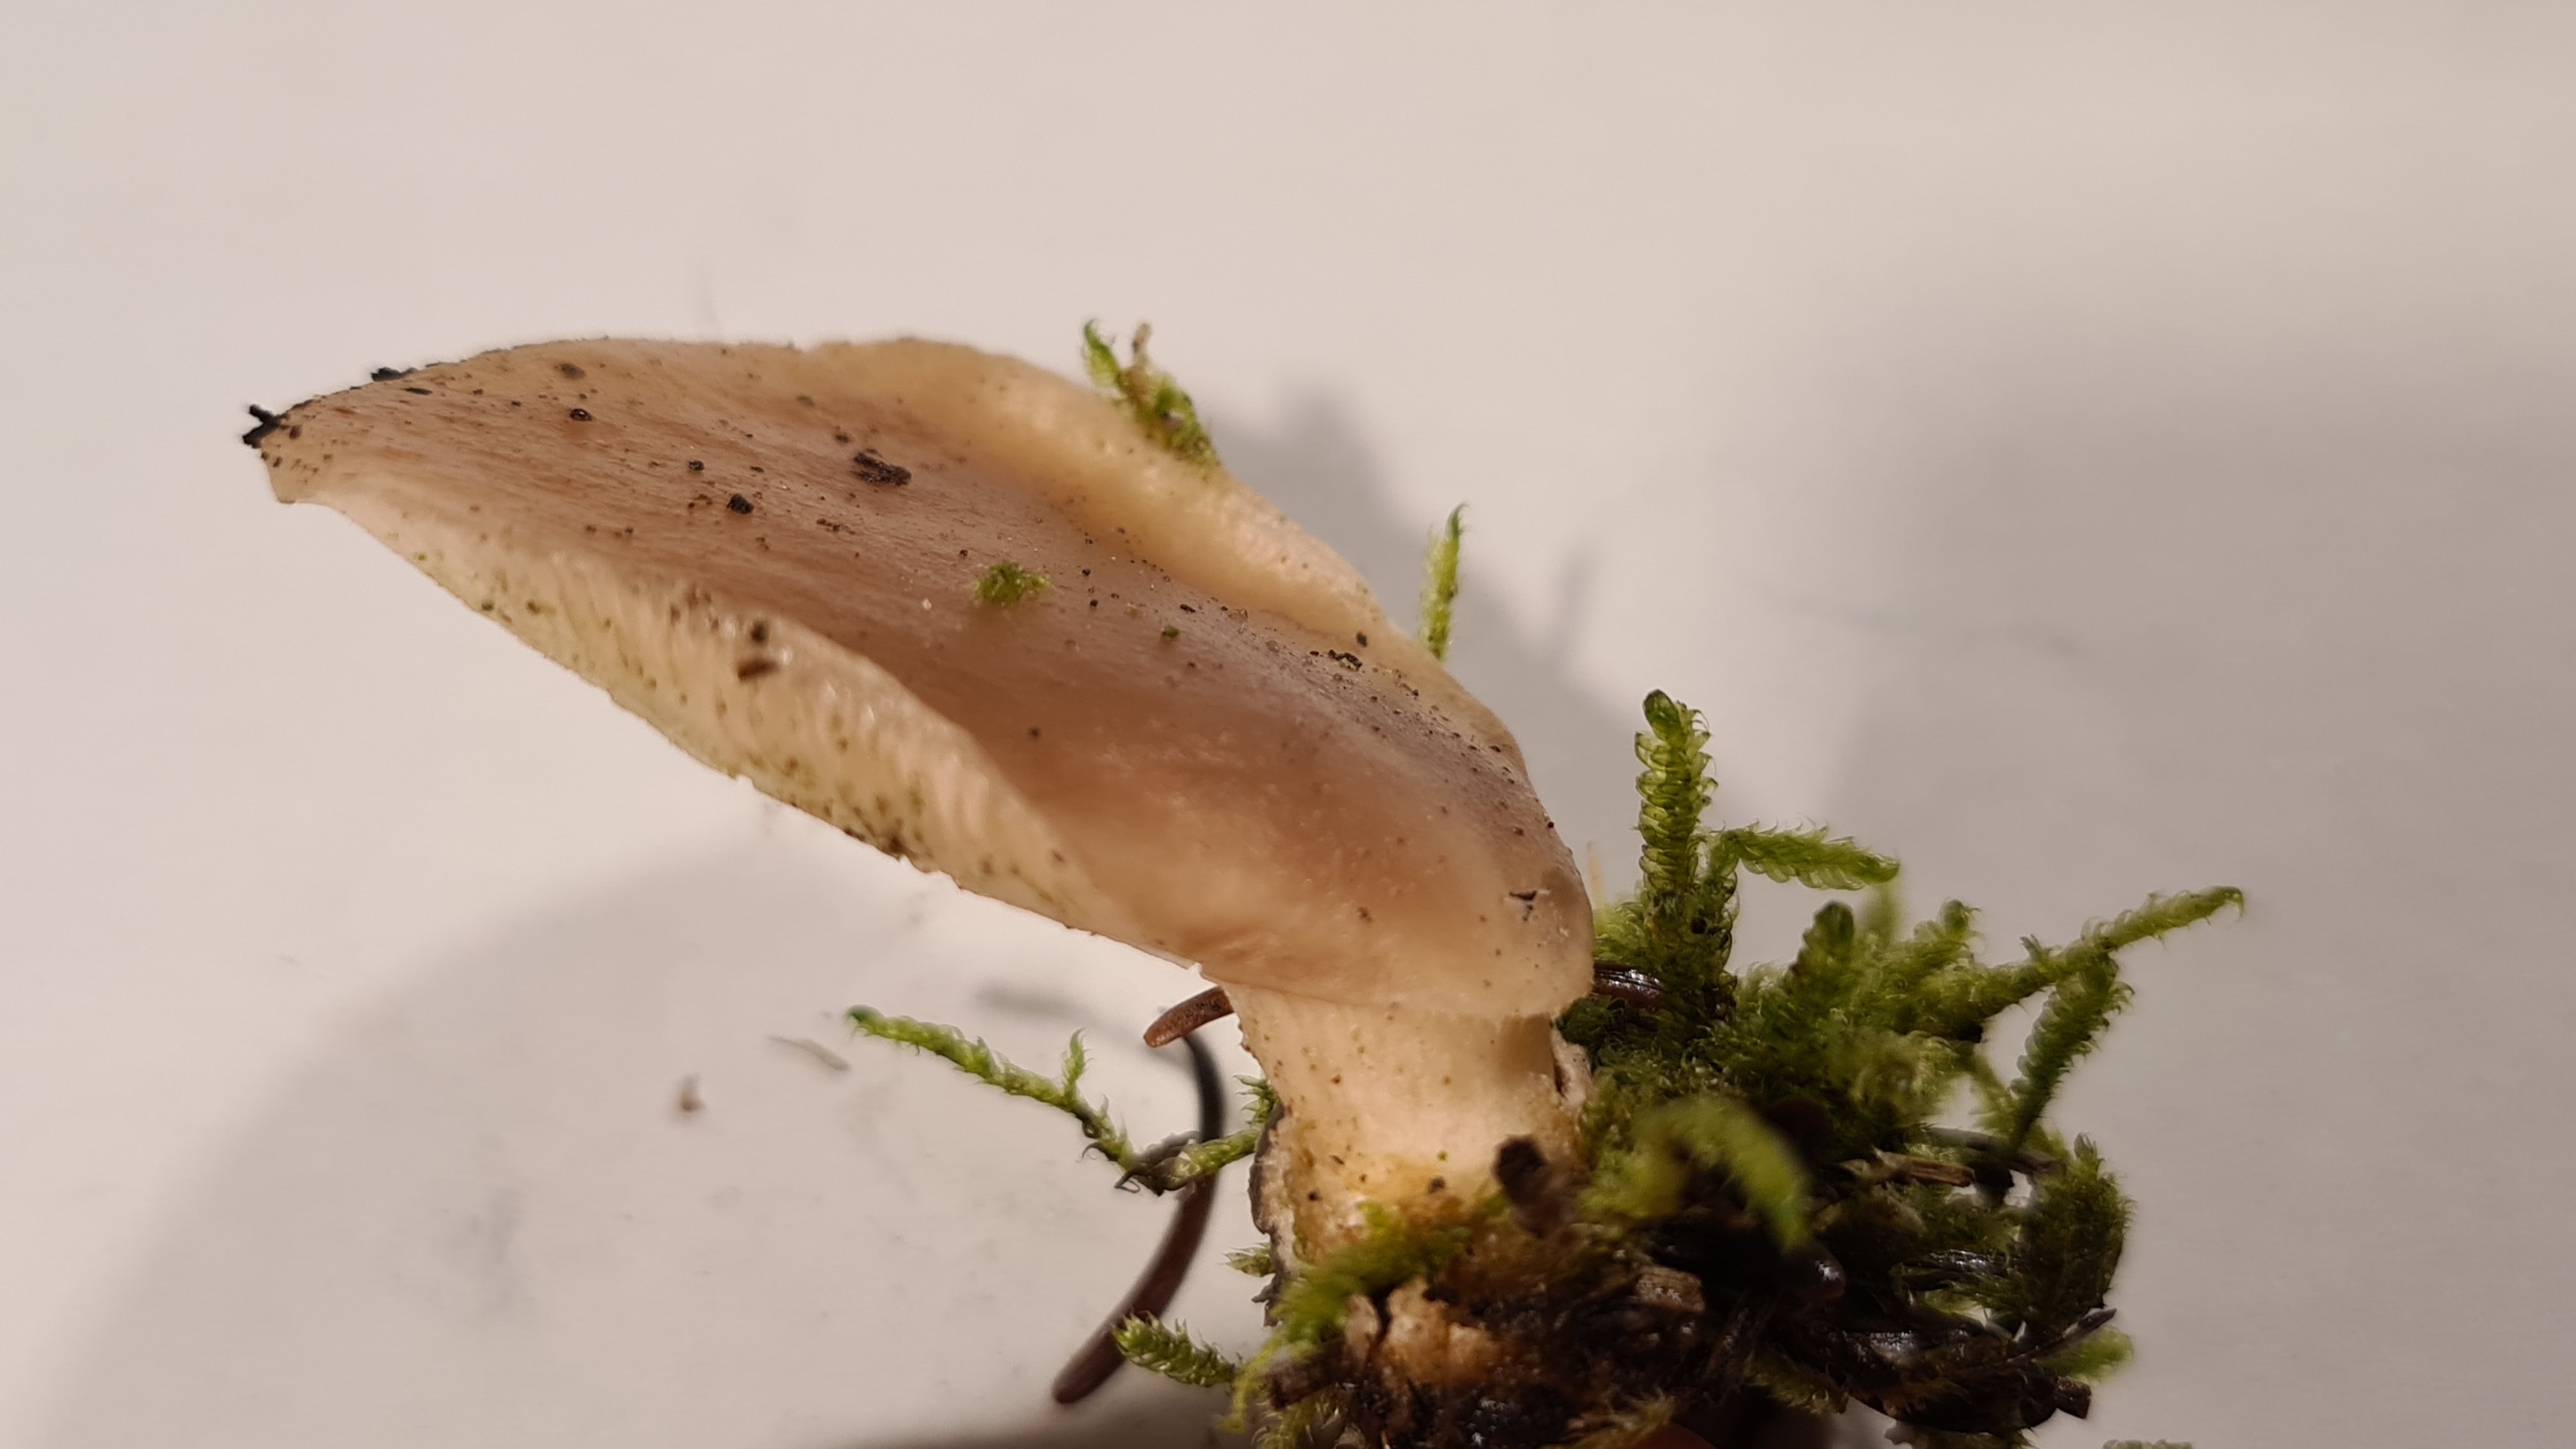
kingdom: Fungi
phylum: Basidiomycota
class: Agaricomycetes
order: Agaricales
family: Pleurotaceae
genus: Hohenbuehelia
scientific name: Hohenbuehelia auriscalpium
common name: spatel-filthat
